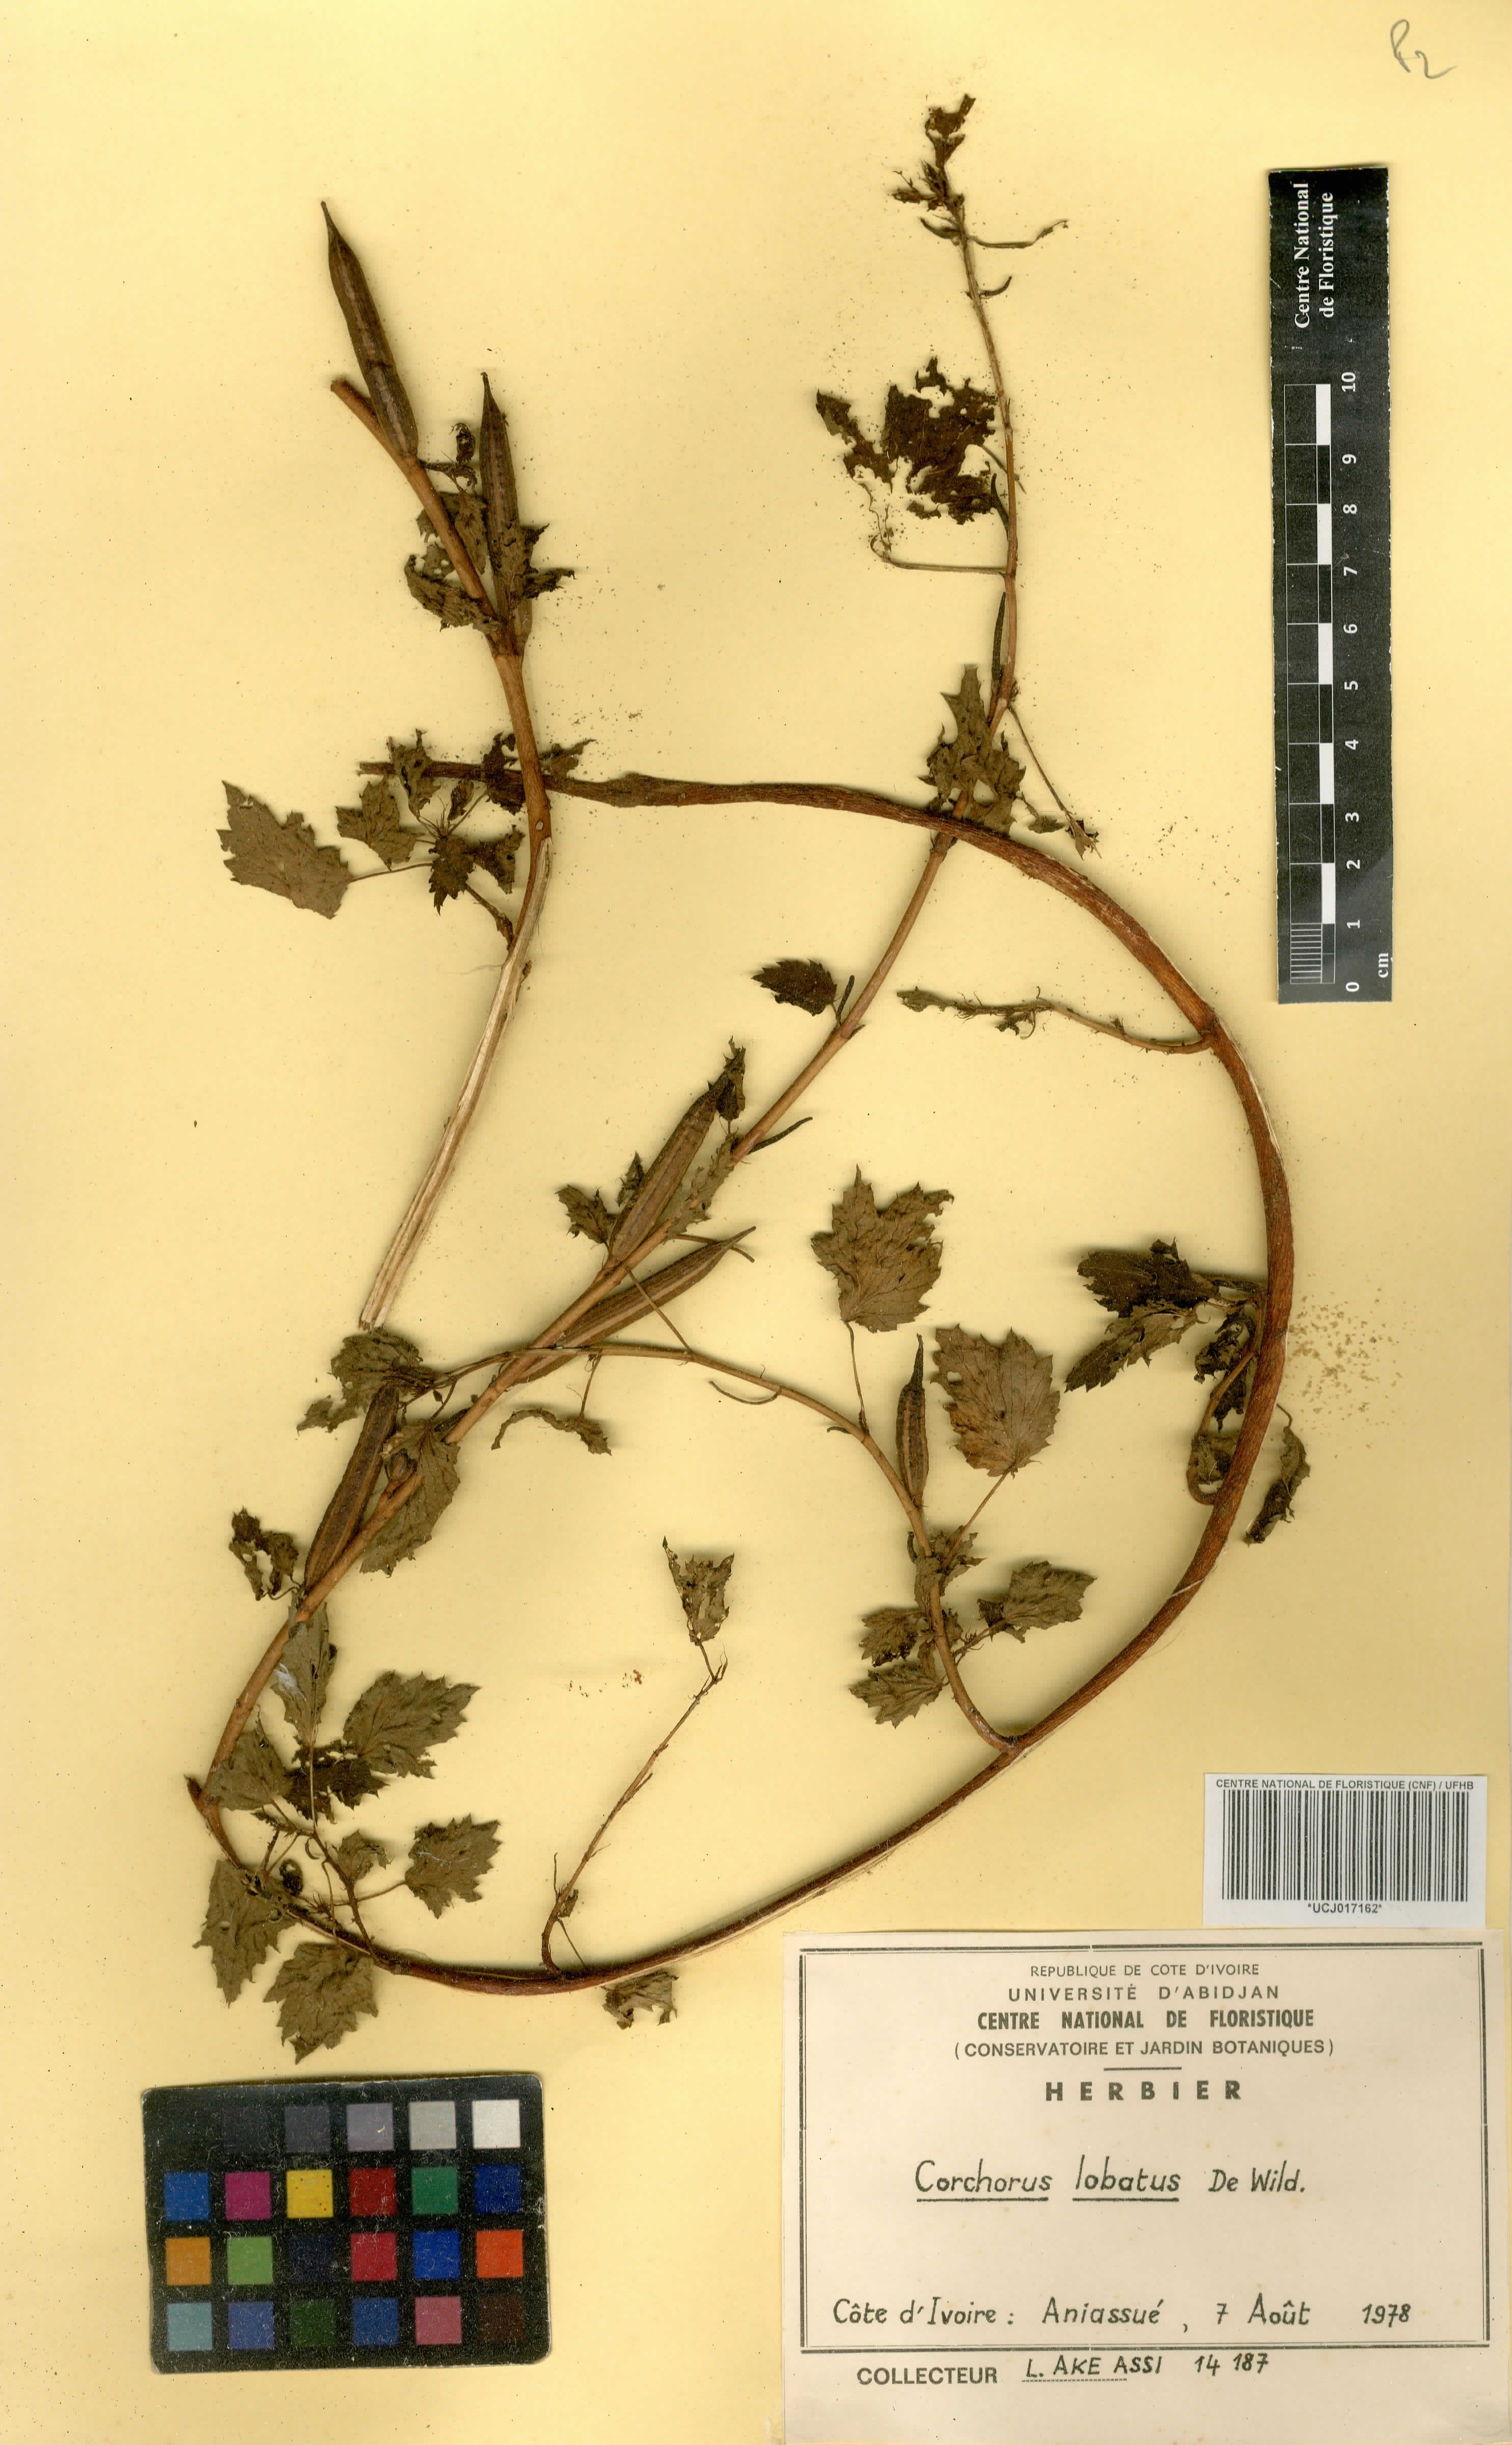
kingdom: Plantae
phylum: Tracheophyta
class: Magnoliopsida
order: Malvales
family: Malvaceae
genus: Corchorus
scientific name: Corchorus lobatus
